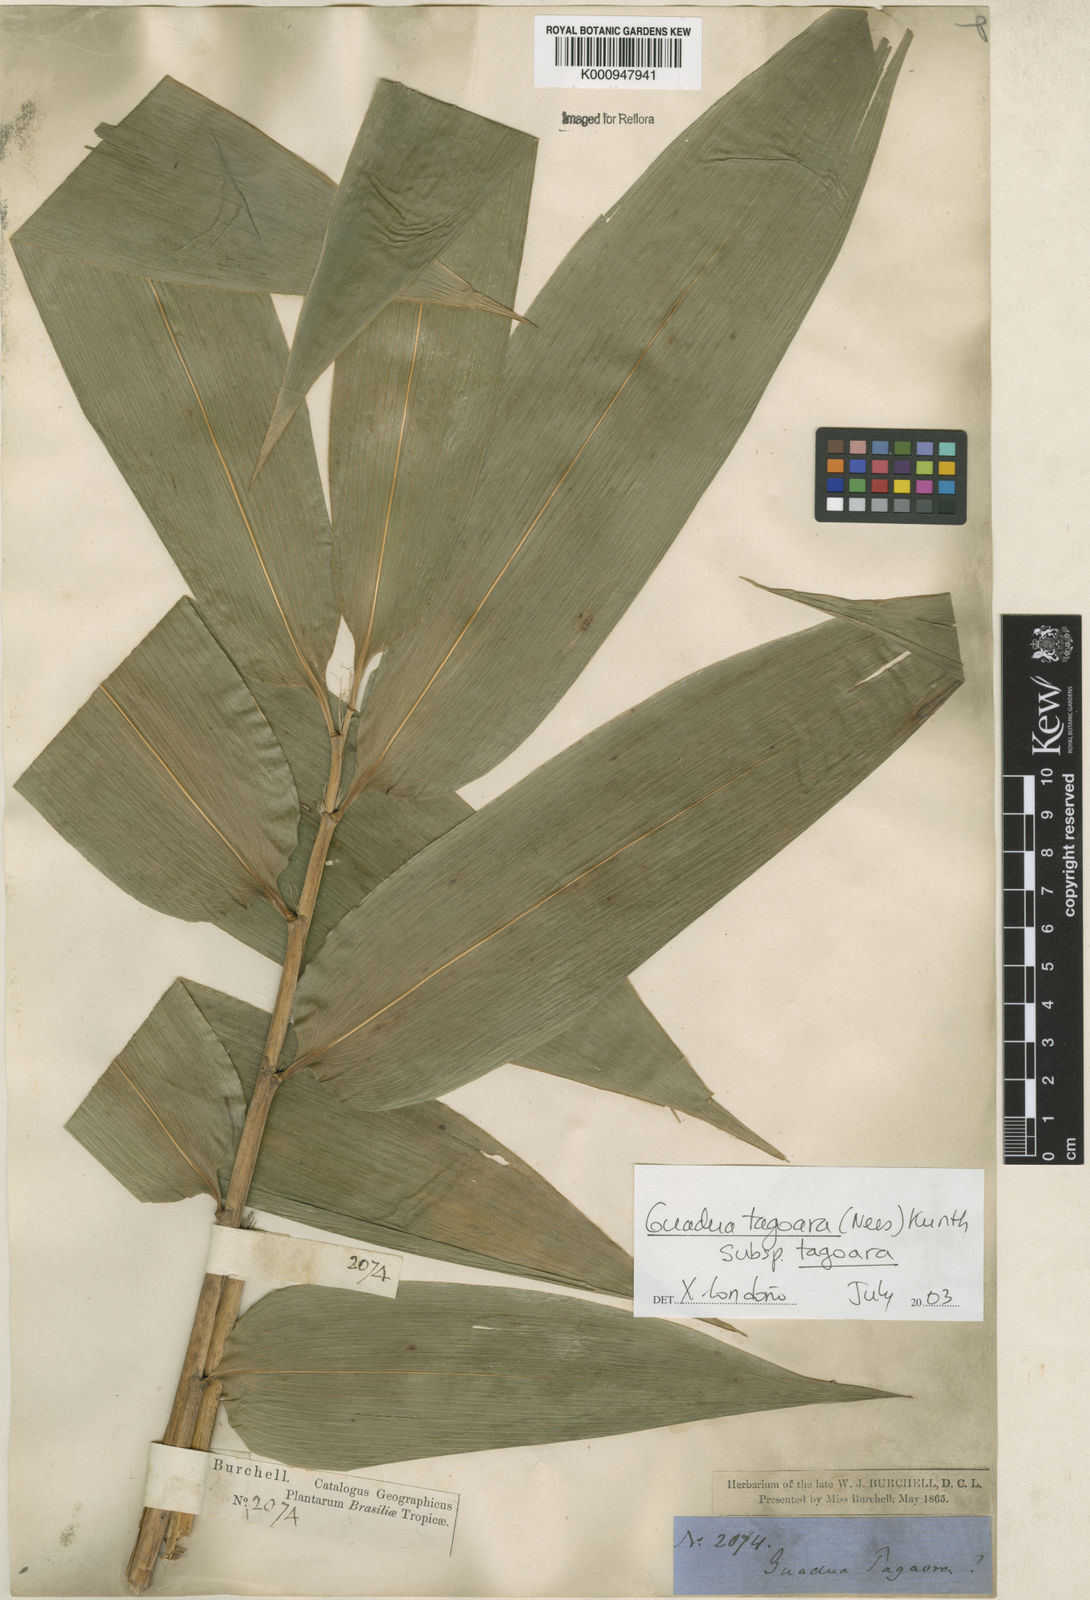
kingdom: Plantae
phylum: Tracheophyta
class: Liliopsida
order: Poales
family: Poaceae
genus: Guadua
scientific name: Guadua tagoara
